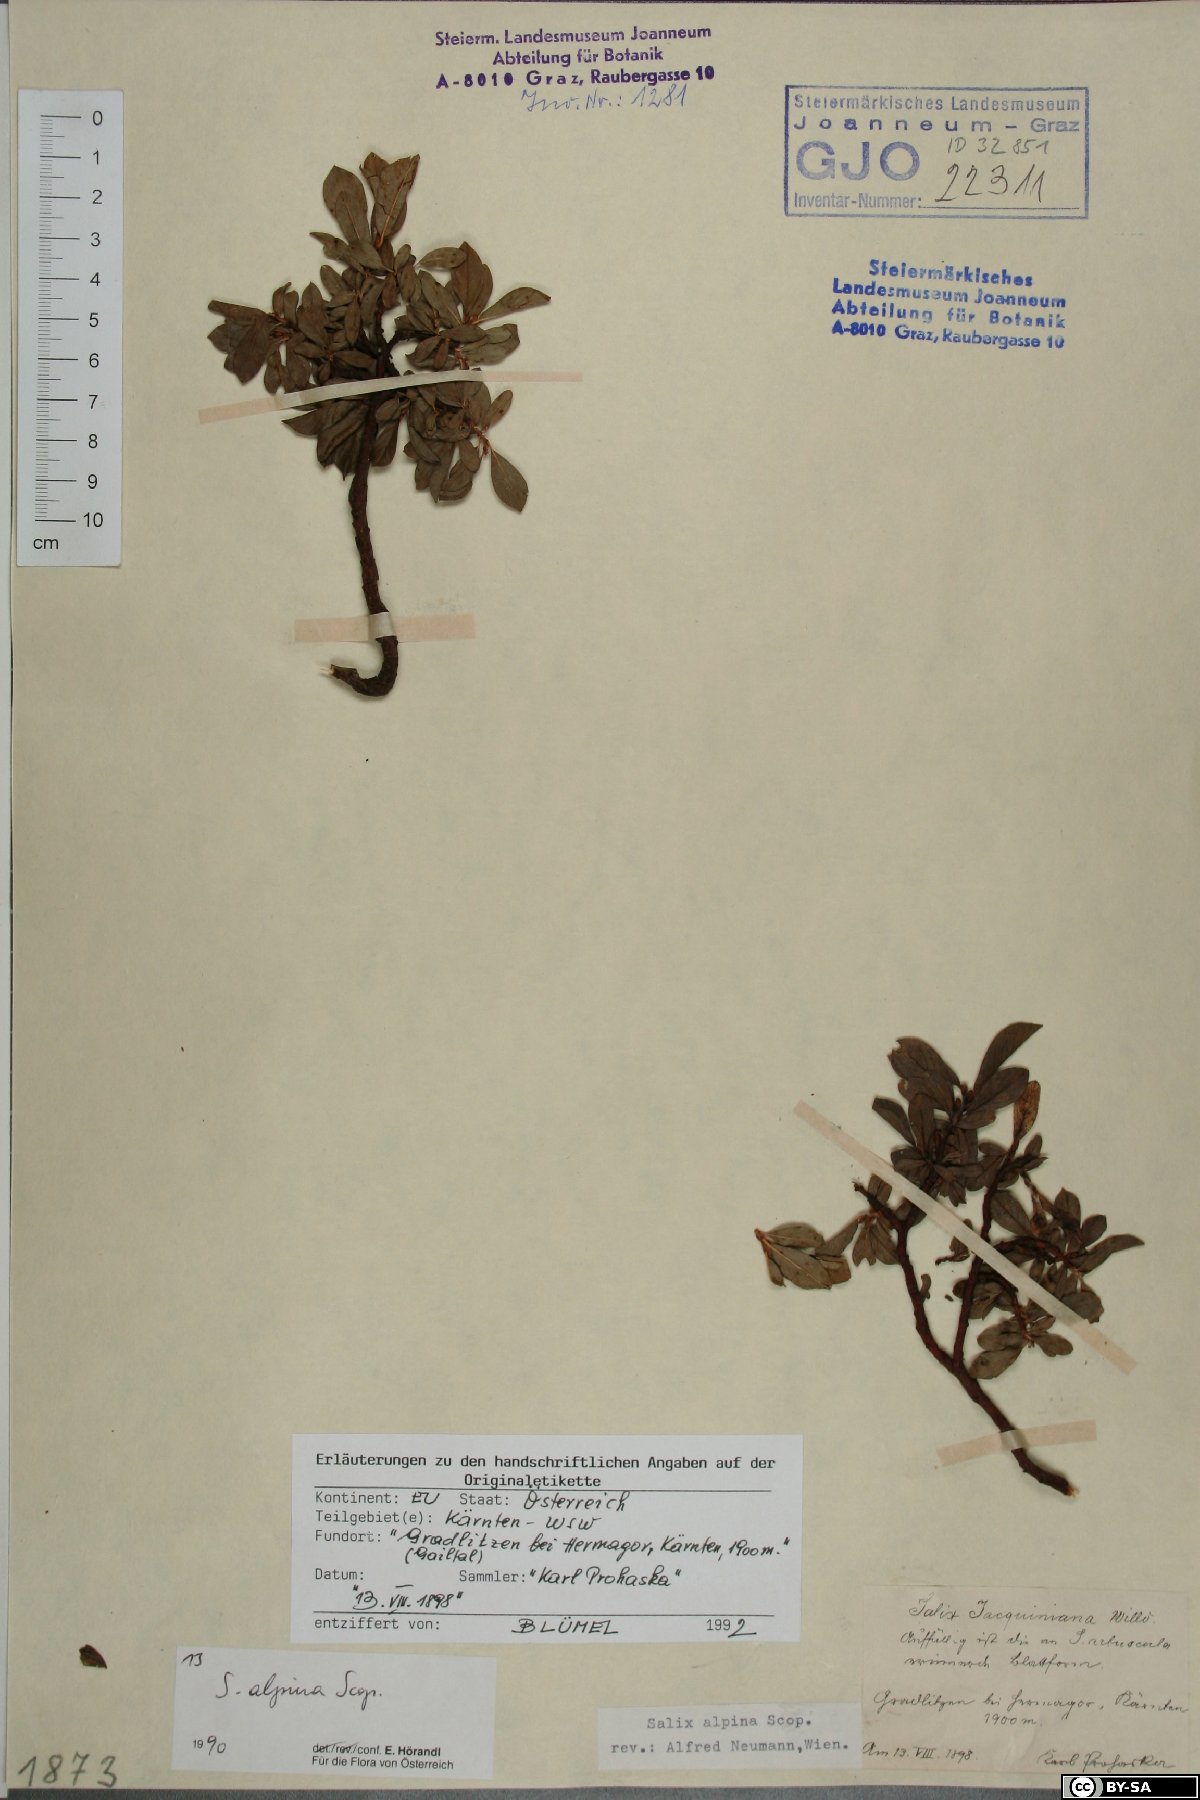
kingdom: Plantae
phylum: Tracheophyta
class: Magnoliopsida
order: Malpighiales
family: Salicaceae
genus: Salix
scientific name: Salix alpina
